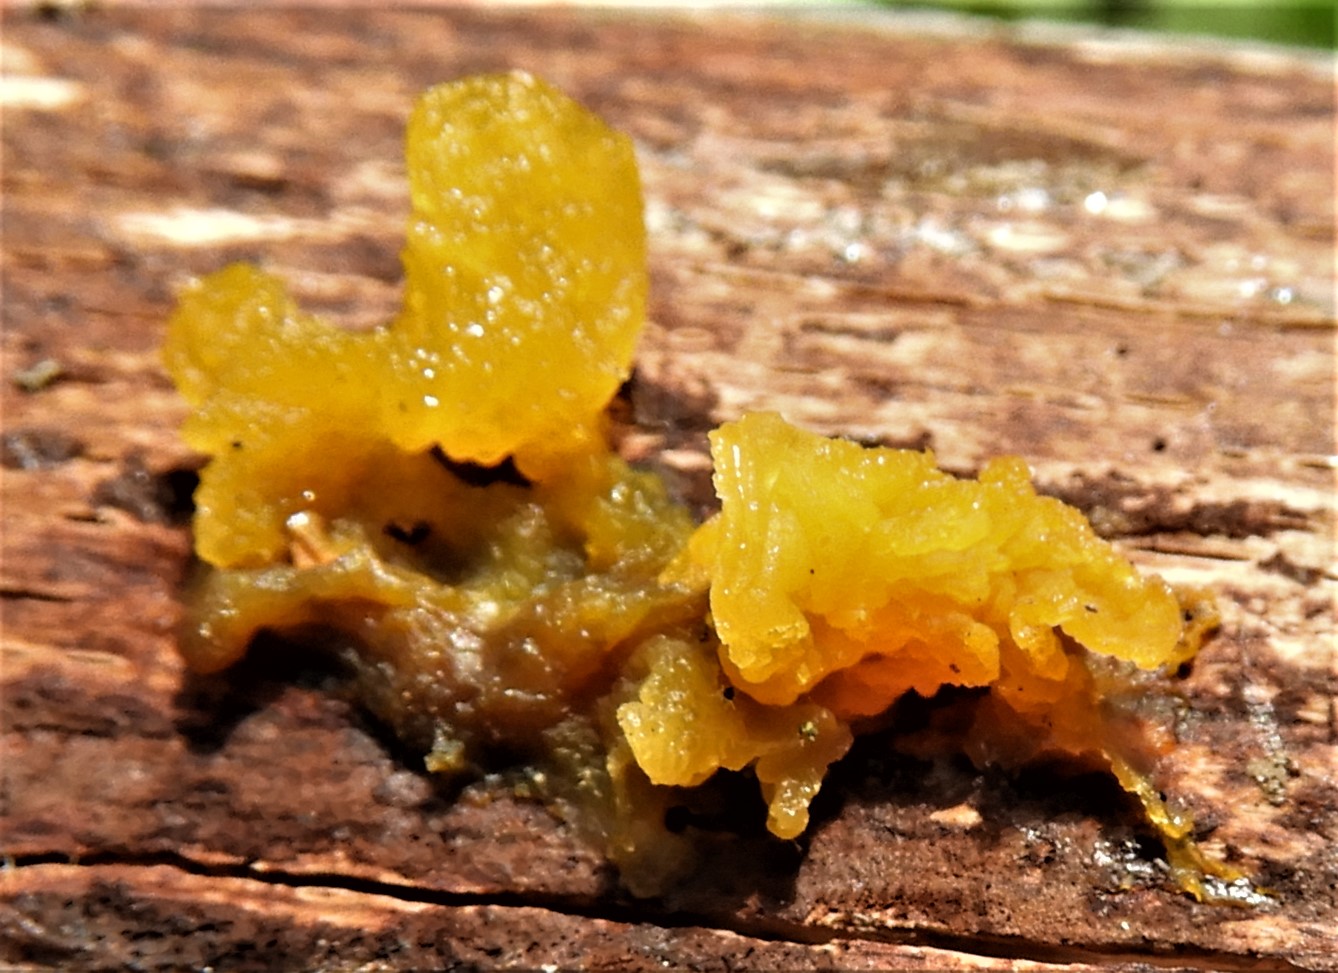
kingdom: Fungi
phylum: Basidiomycota
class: Tremellomycetes
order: Tremellales
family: Tremellaceae
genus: Tremella
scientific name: Tremella mesenterica
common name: gul bævresvamp
